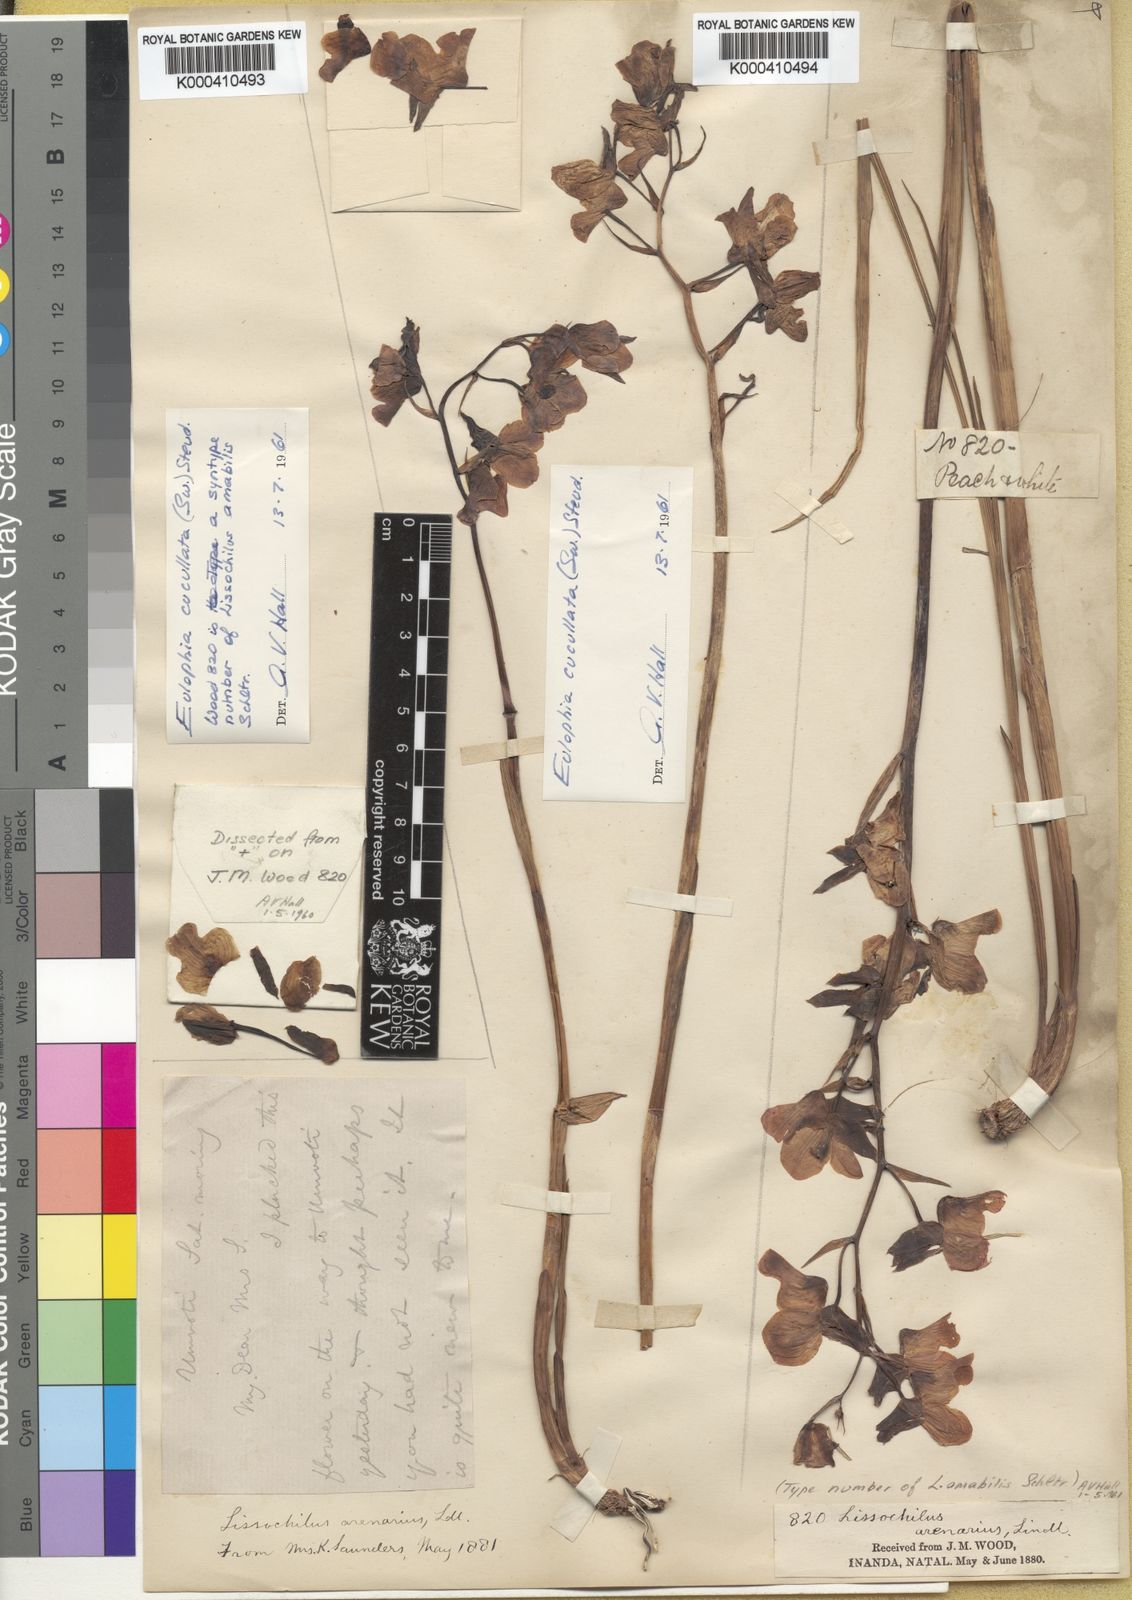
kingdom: Plantae
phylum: Tracheophyta
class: Liliopsida
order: Asparagales
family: Orchidaceae
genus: Eulophia
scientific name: Eulophia cucullata
